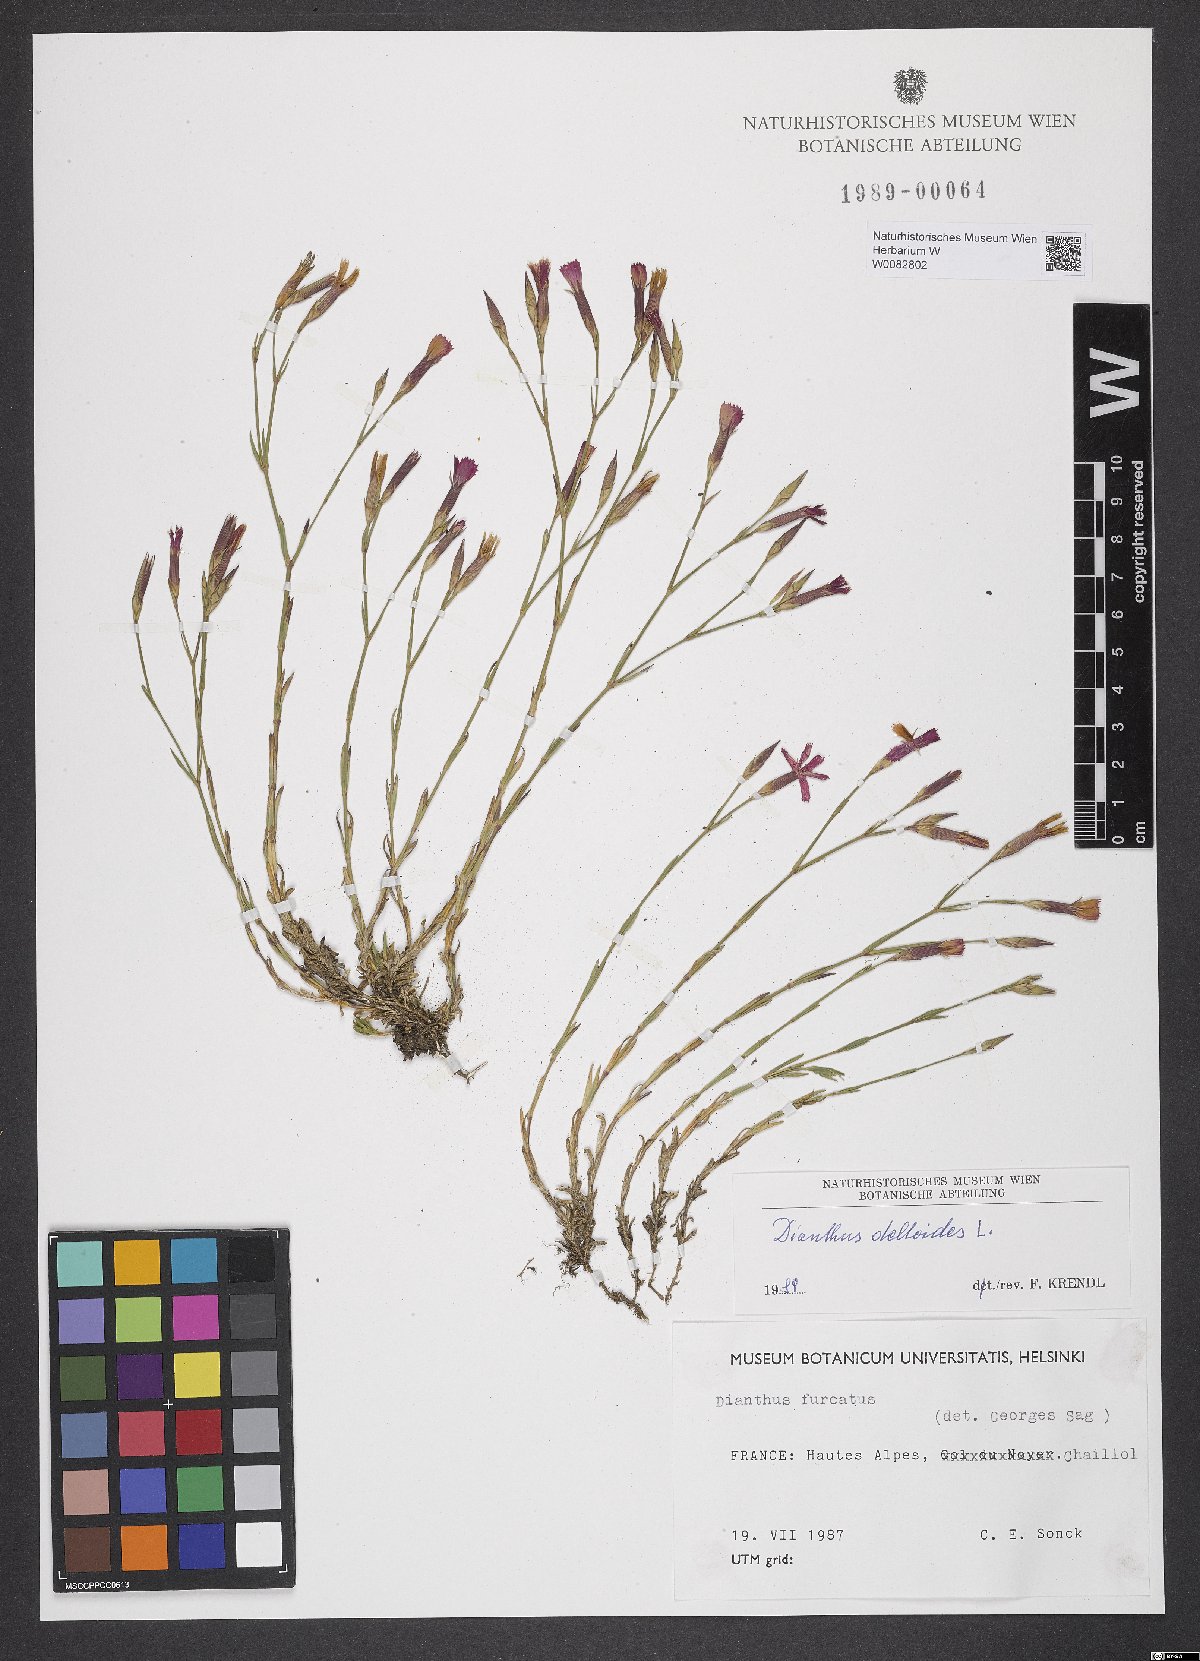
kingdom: Plantae
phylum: Tracheophyta
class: Magnoliopsida
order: Caryophyllales
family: Caryophyllaceae
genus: Dianthus
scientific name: Dianthus deltoides
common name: Maiden pink
